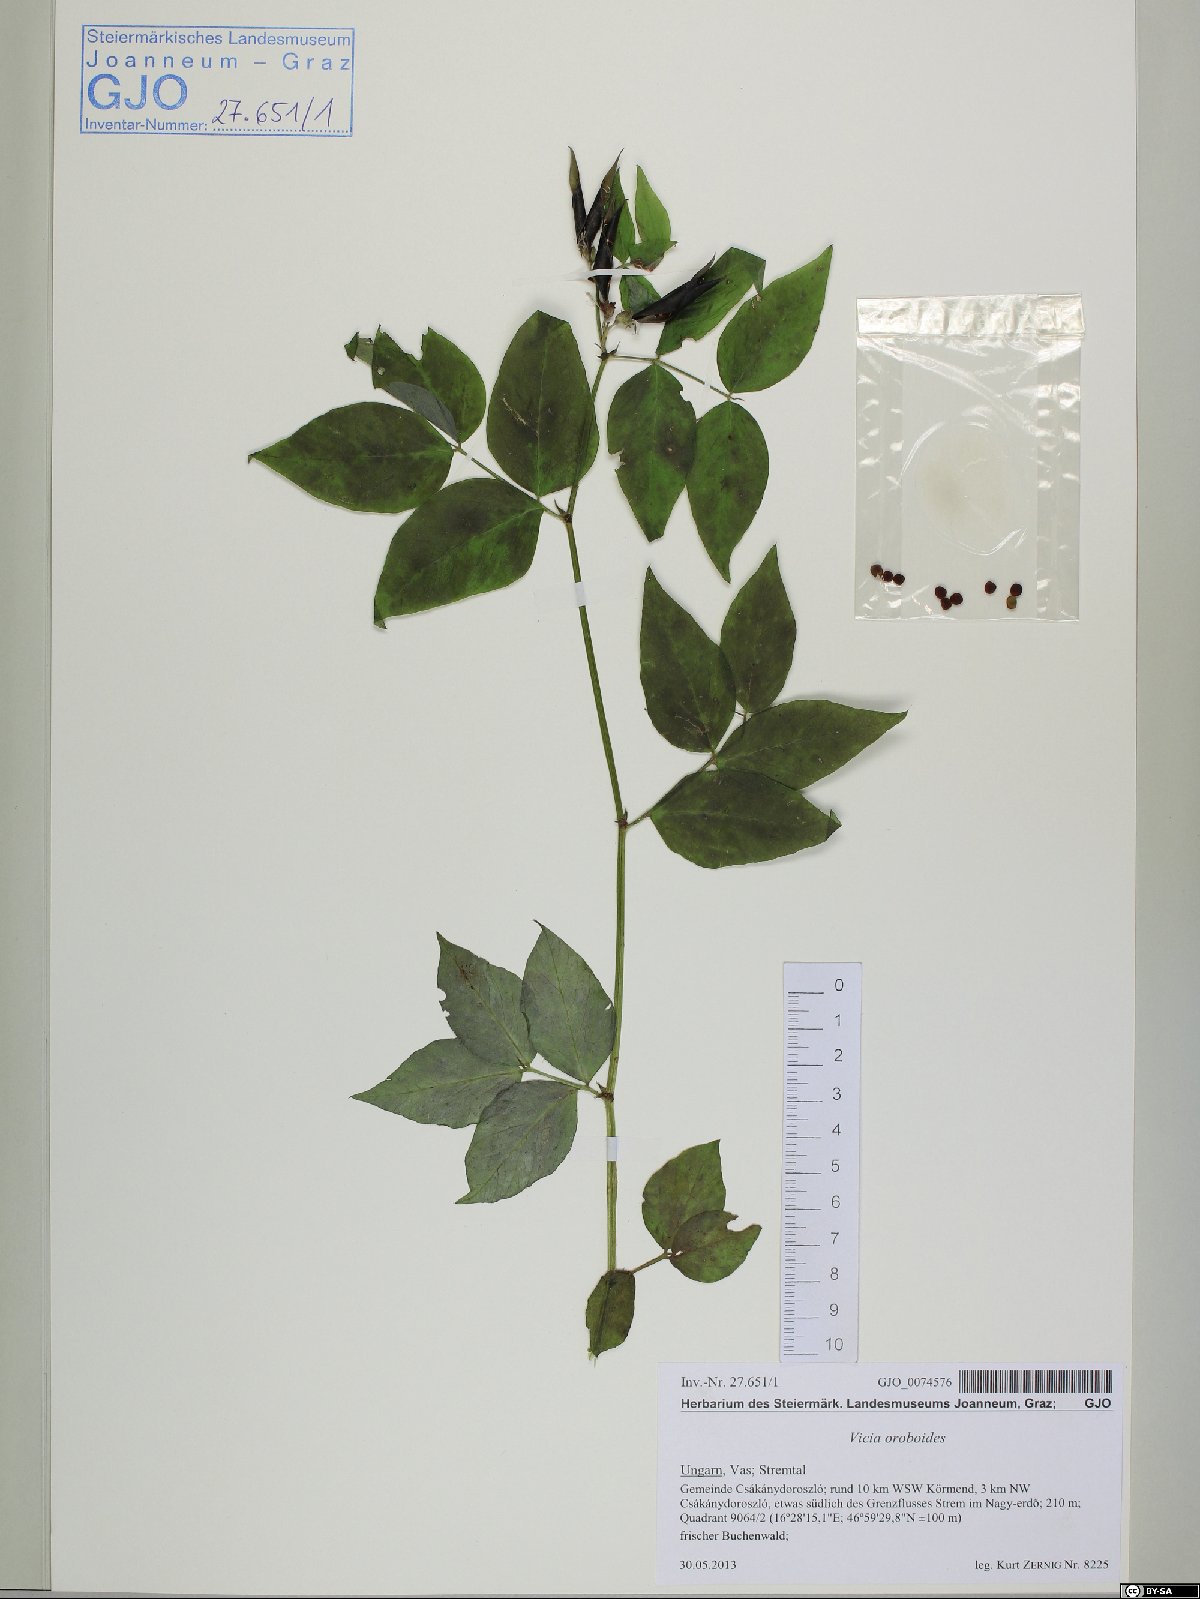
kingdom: Plantae
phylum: Tracheophyta
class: Magnoliopsida
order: Fabales
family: Fabaceae
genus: Vicia
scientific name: Vicia oroboides
